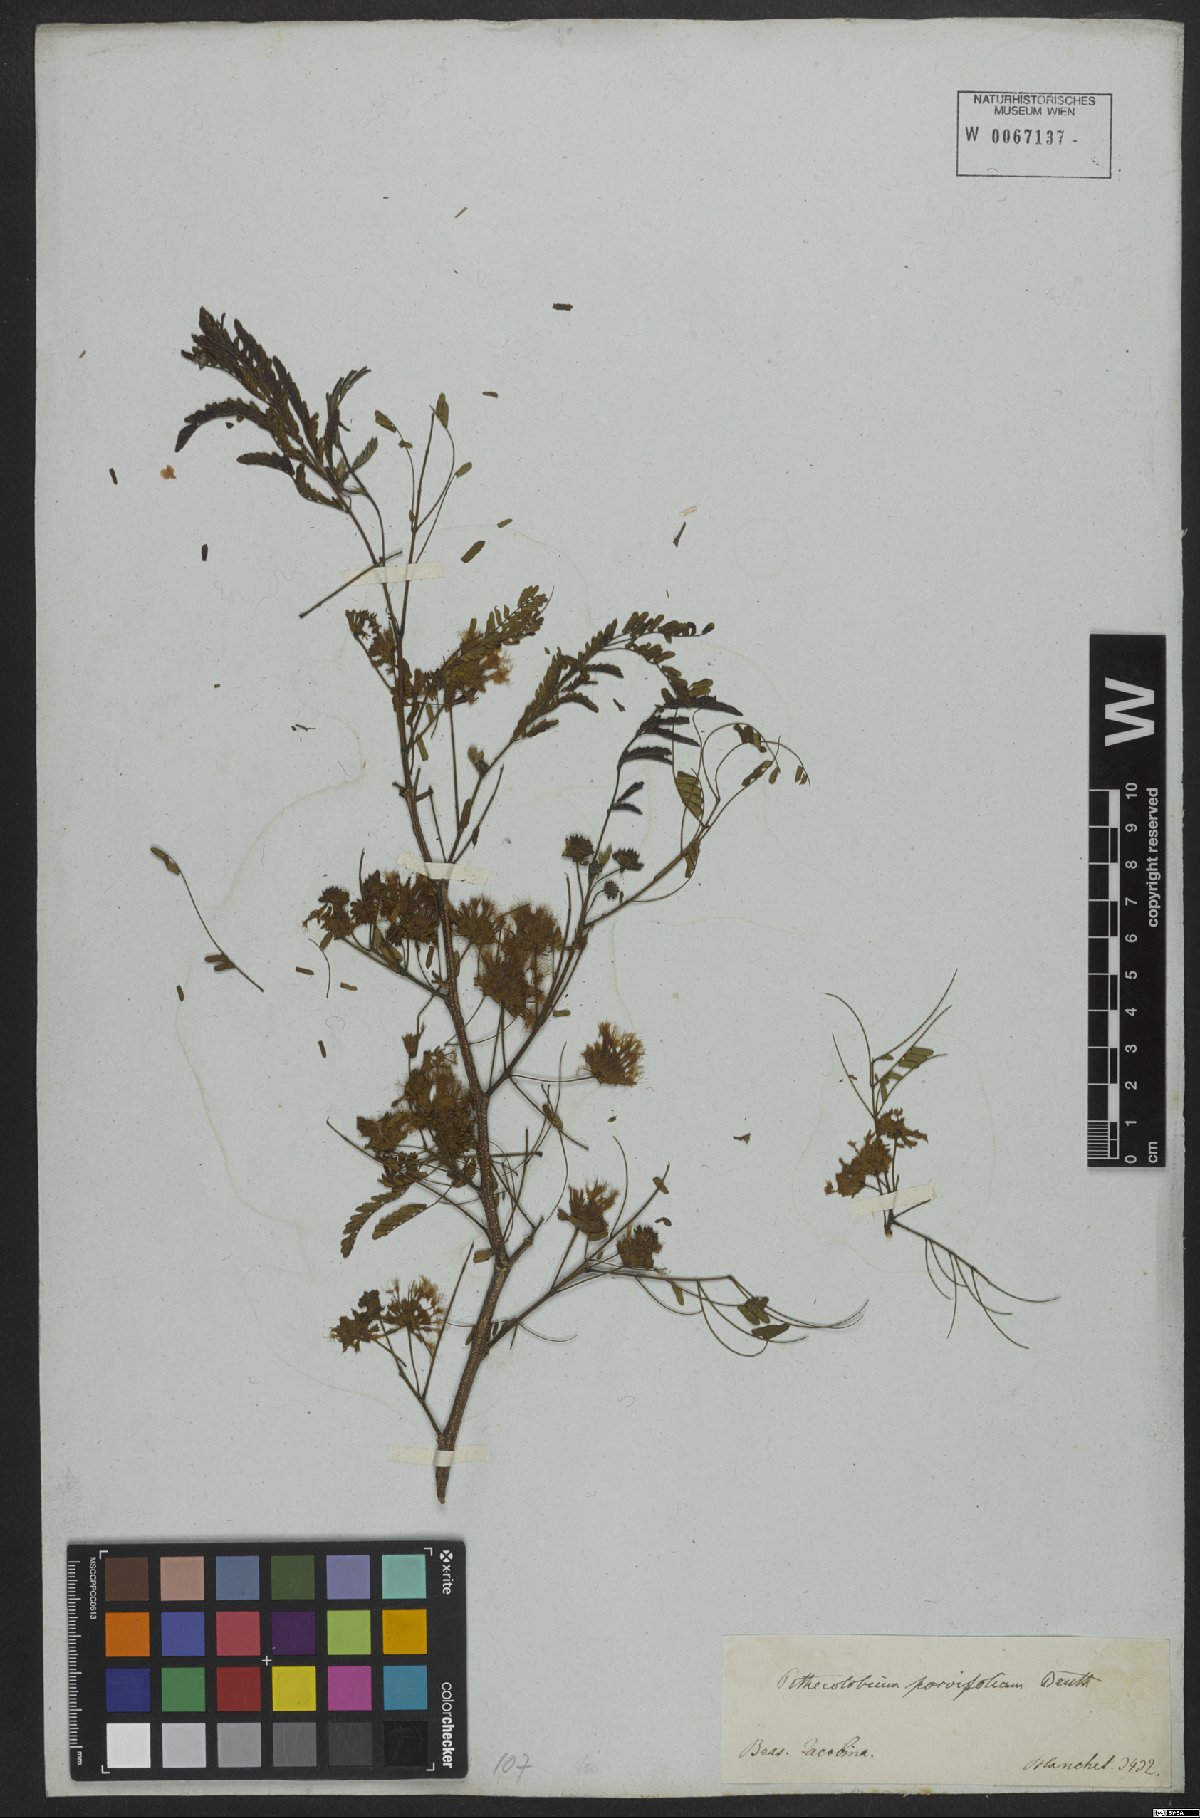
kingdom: Plantae
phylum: Tracheophyta
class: Magnoliopsida
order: Fabales
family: Fabaceae
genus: Chloroleucon
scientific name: Chloroleucon mangense
